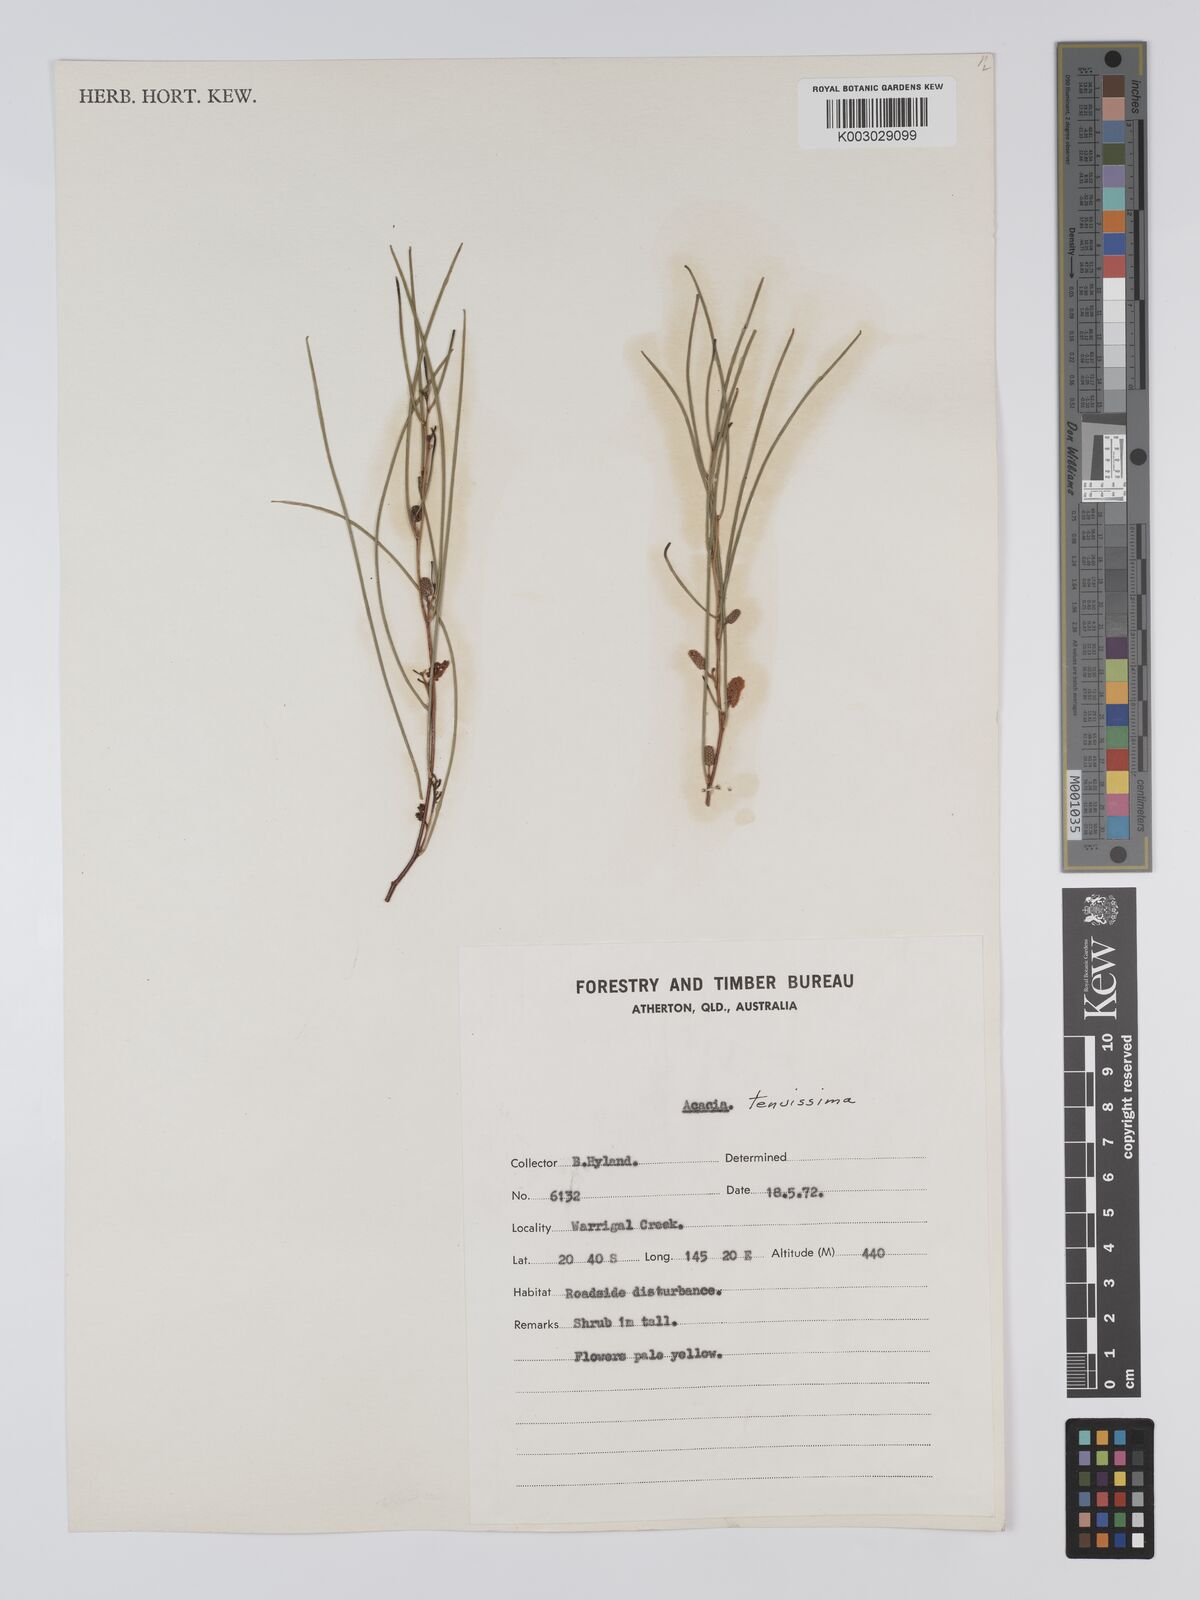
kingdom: Plantae
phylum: Tracheophyta
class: Magnoliopsida
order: Fabales
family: Fabaceae
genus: Acacia
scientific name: Acacia tenuissima
